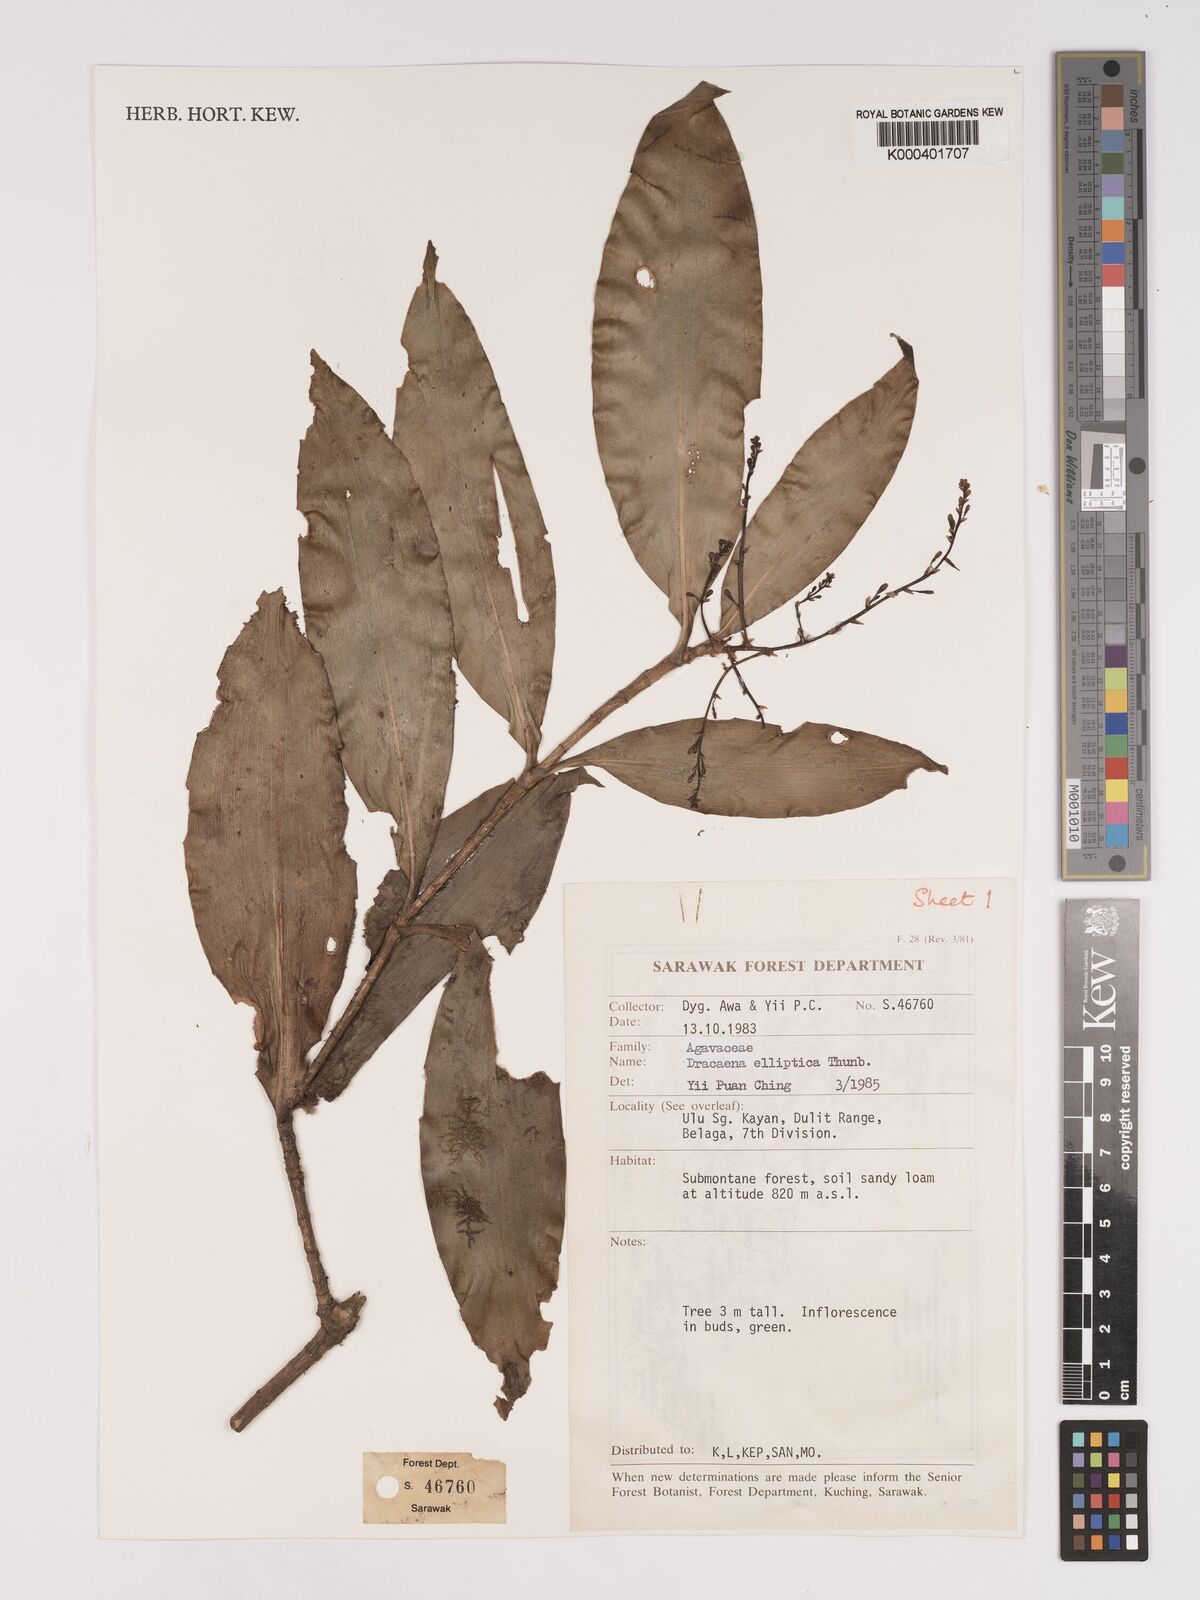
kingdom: Plantae
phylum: Tracheophyta
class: Liliopsida
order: Asparagales
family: Asparagaceae
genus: Dracaena
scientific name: Dracaena elliptica
